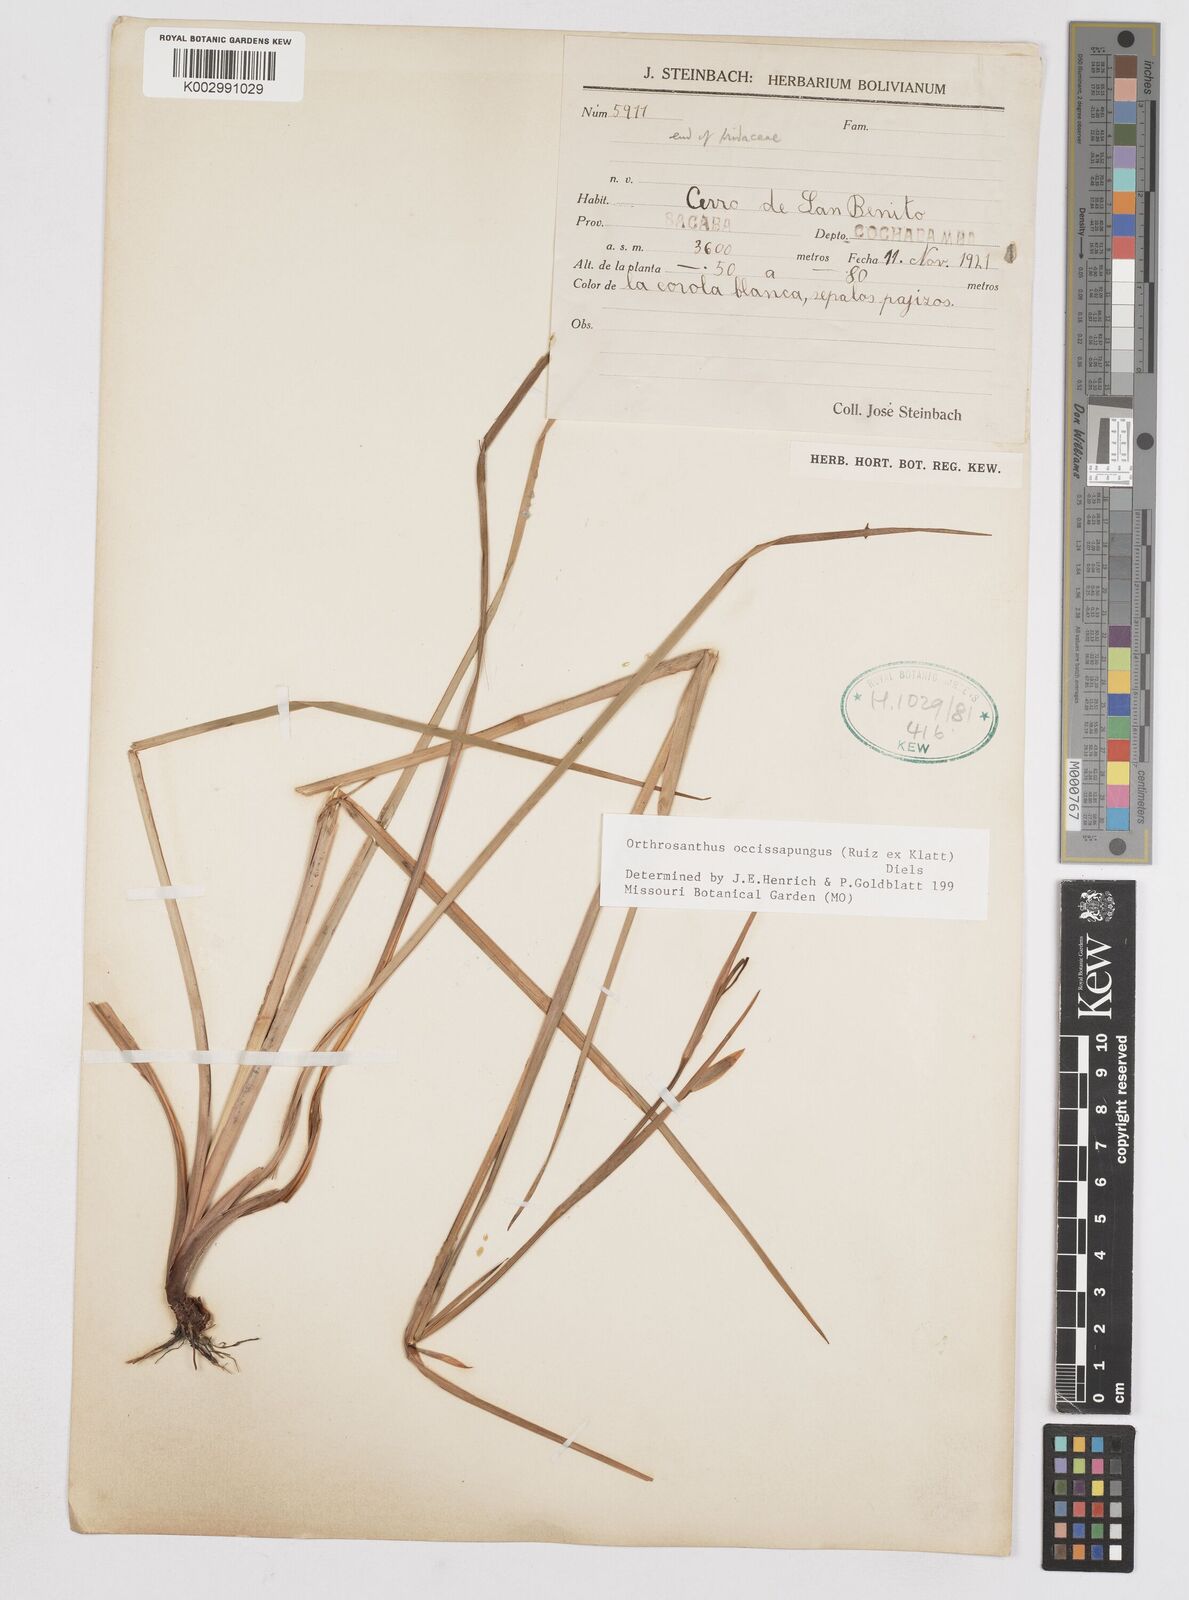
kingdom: Plantae
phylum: Tracheophyta
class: Liliopsida
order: Asparagales
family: Iridaceae
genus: Orthrosanthus
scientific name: Orthrosanthus occissapungus
